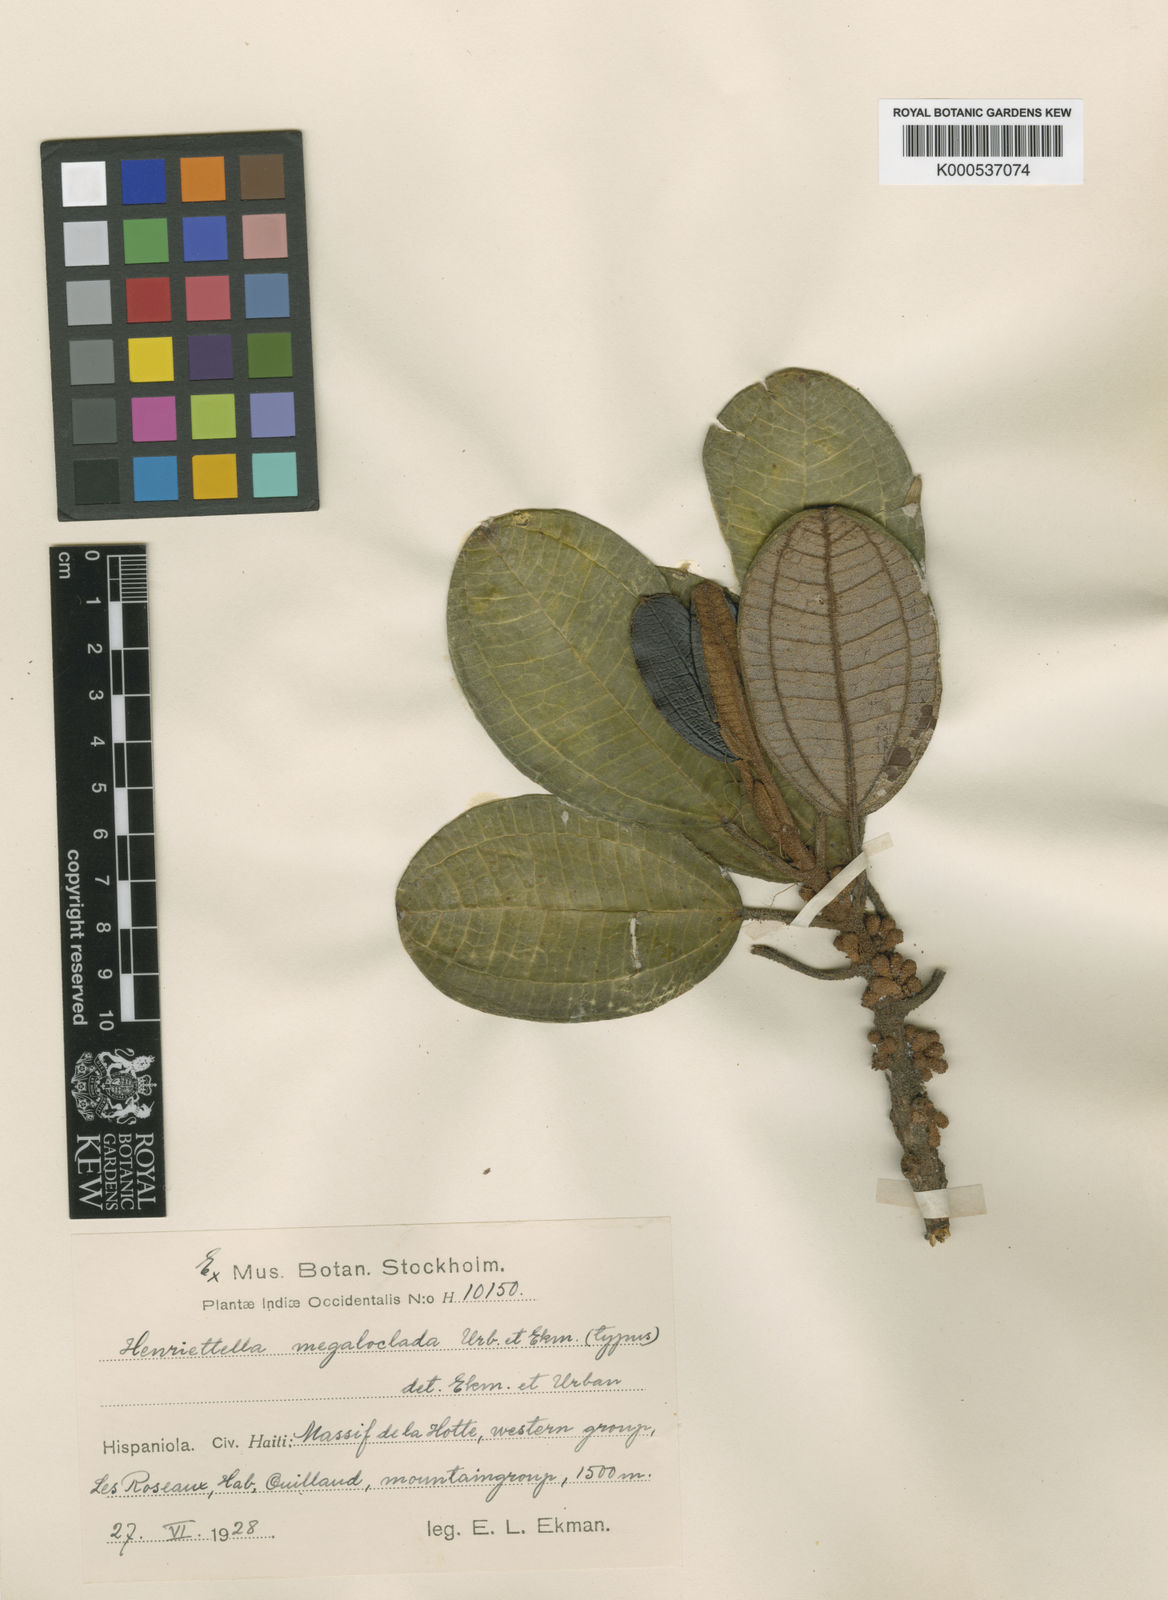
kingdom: Plantae
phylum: Tracheophyta
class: Magnoliopsida
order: Myrtales
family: Melastomataceae
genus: Henriettea
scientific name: Henriettea megaloclada
